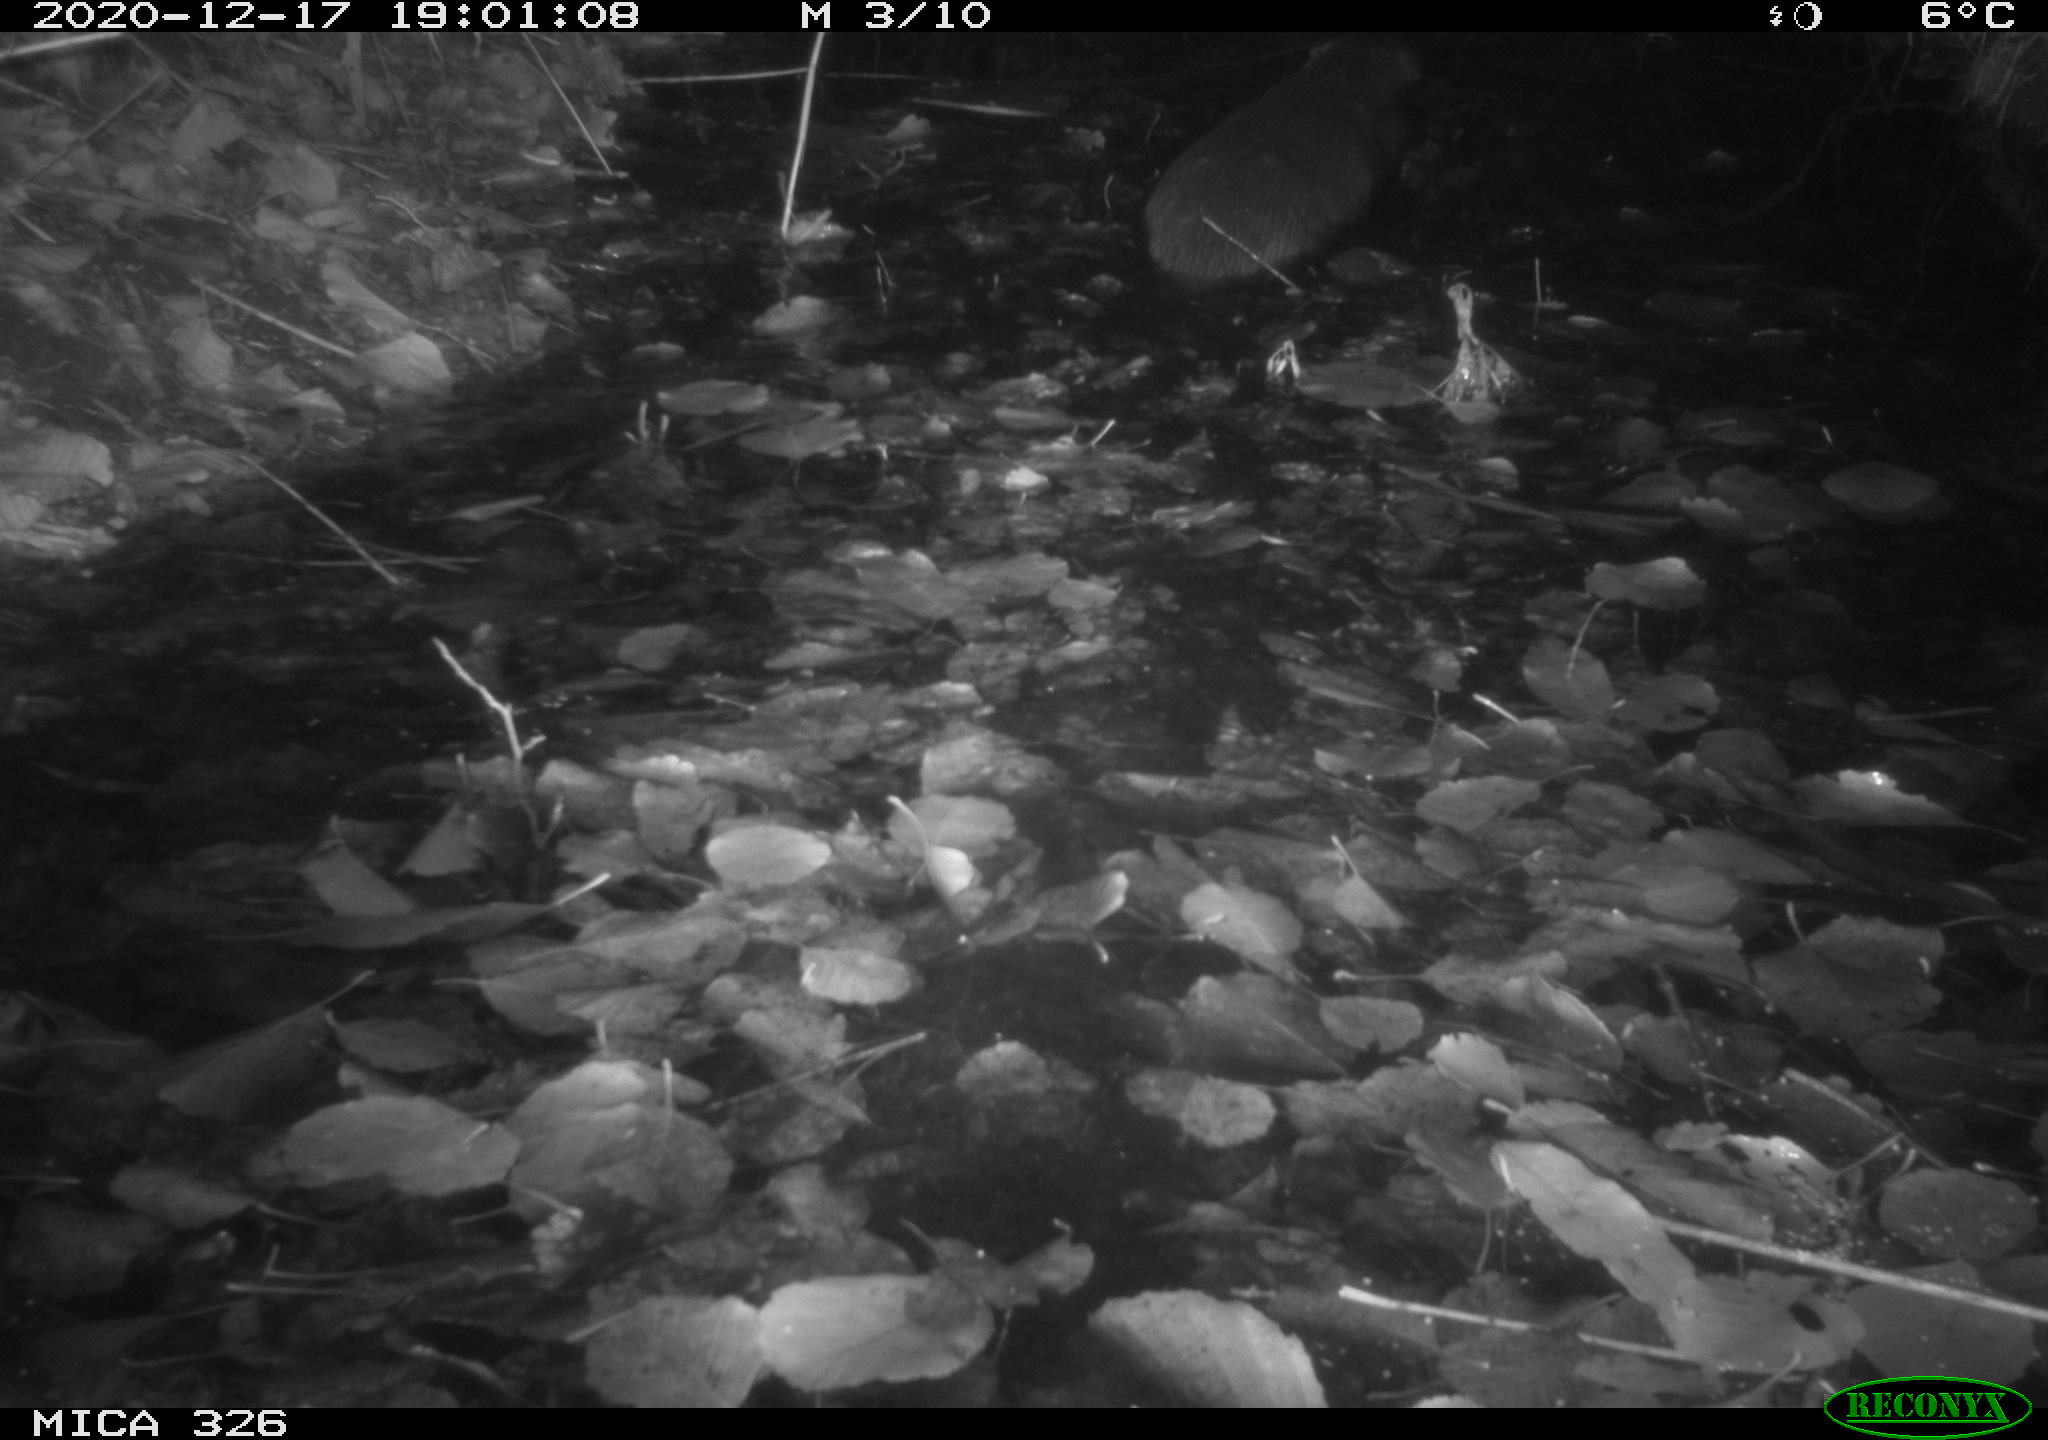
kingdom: Animalia
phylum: Chordata
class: Mammalia
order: Carnivora
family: Mustelidae
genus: Lutra
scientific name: Lutra lutra
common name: European otter
